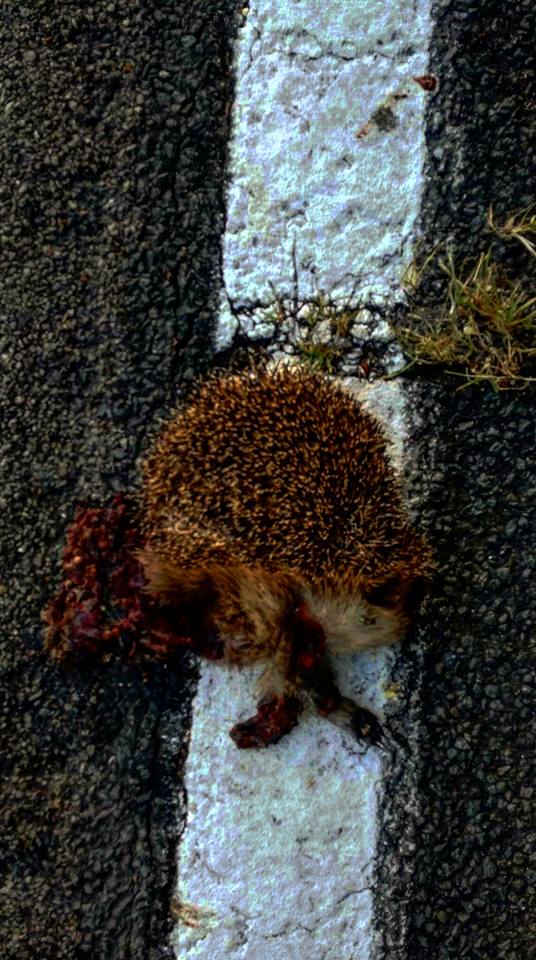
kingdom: Animalia
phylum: Chordata
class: Mammalia
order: Erinaceomorpha
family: Erinaceidae
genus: Erinaceus
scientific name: Erinaceus
